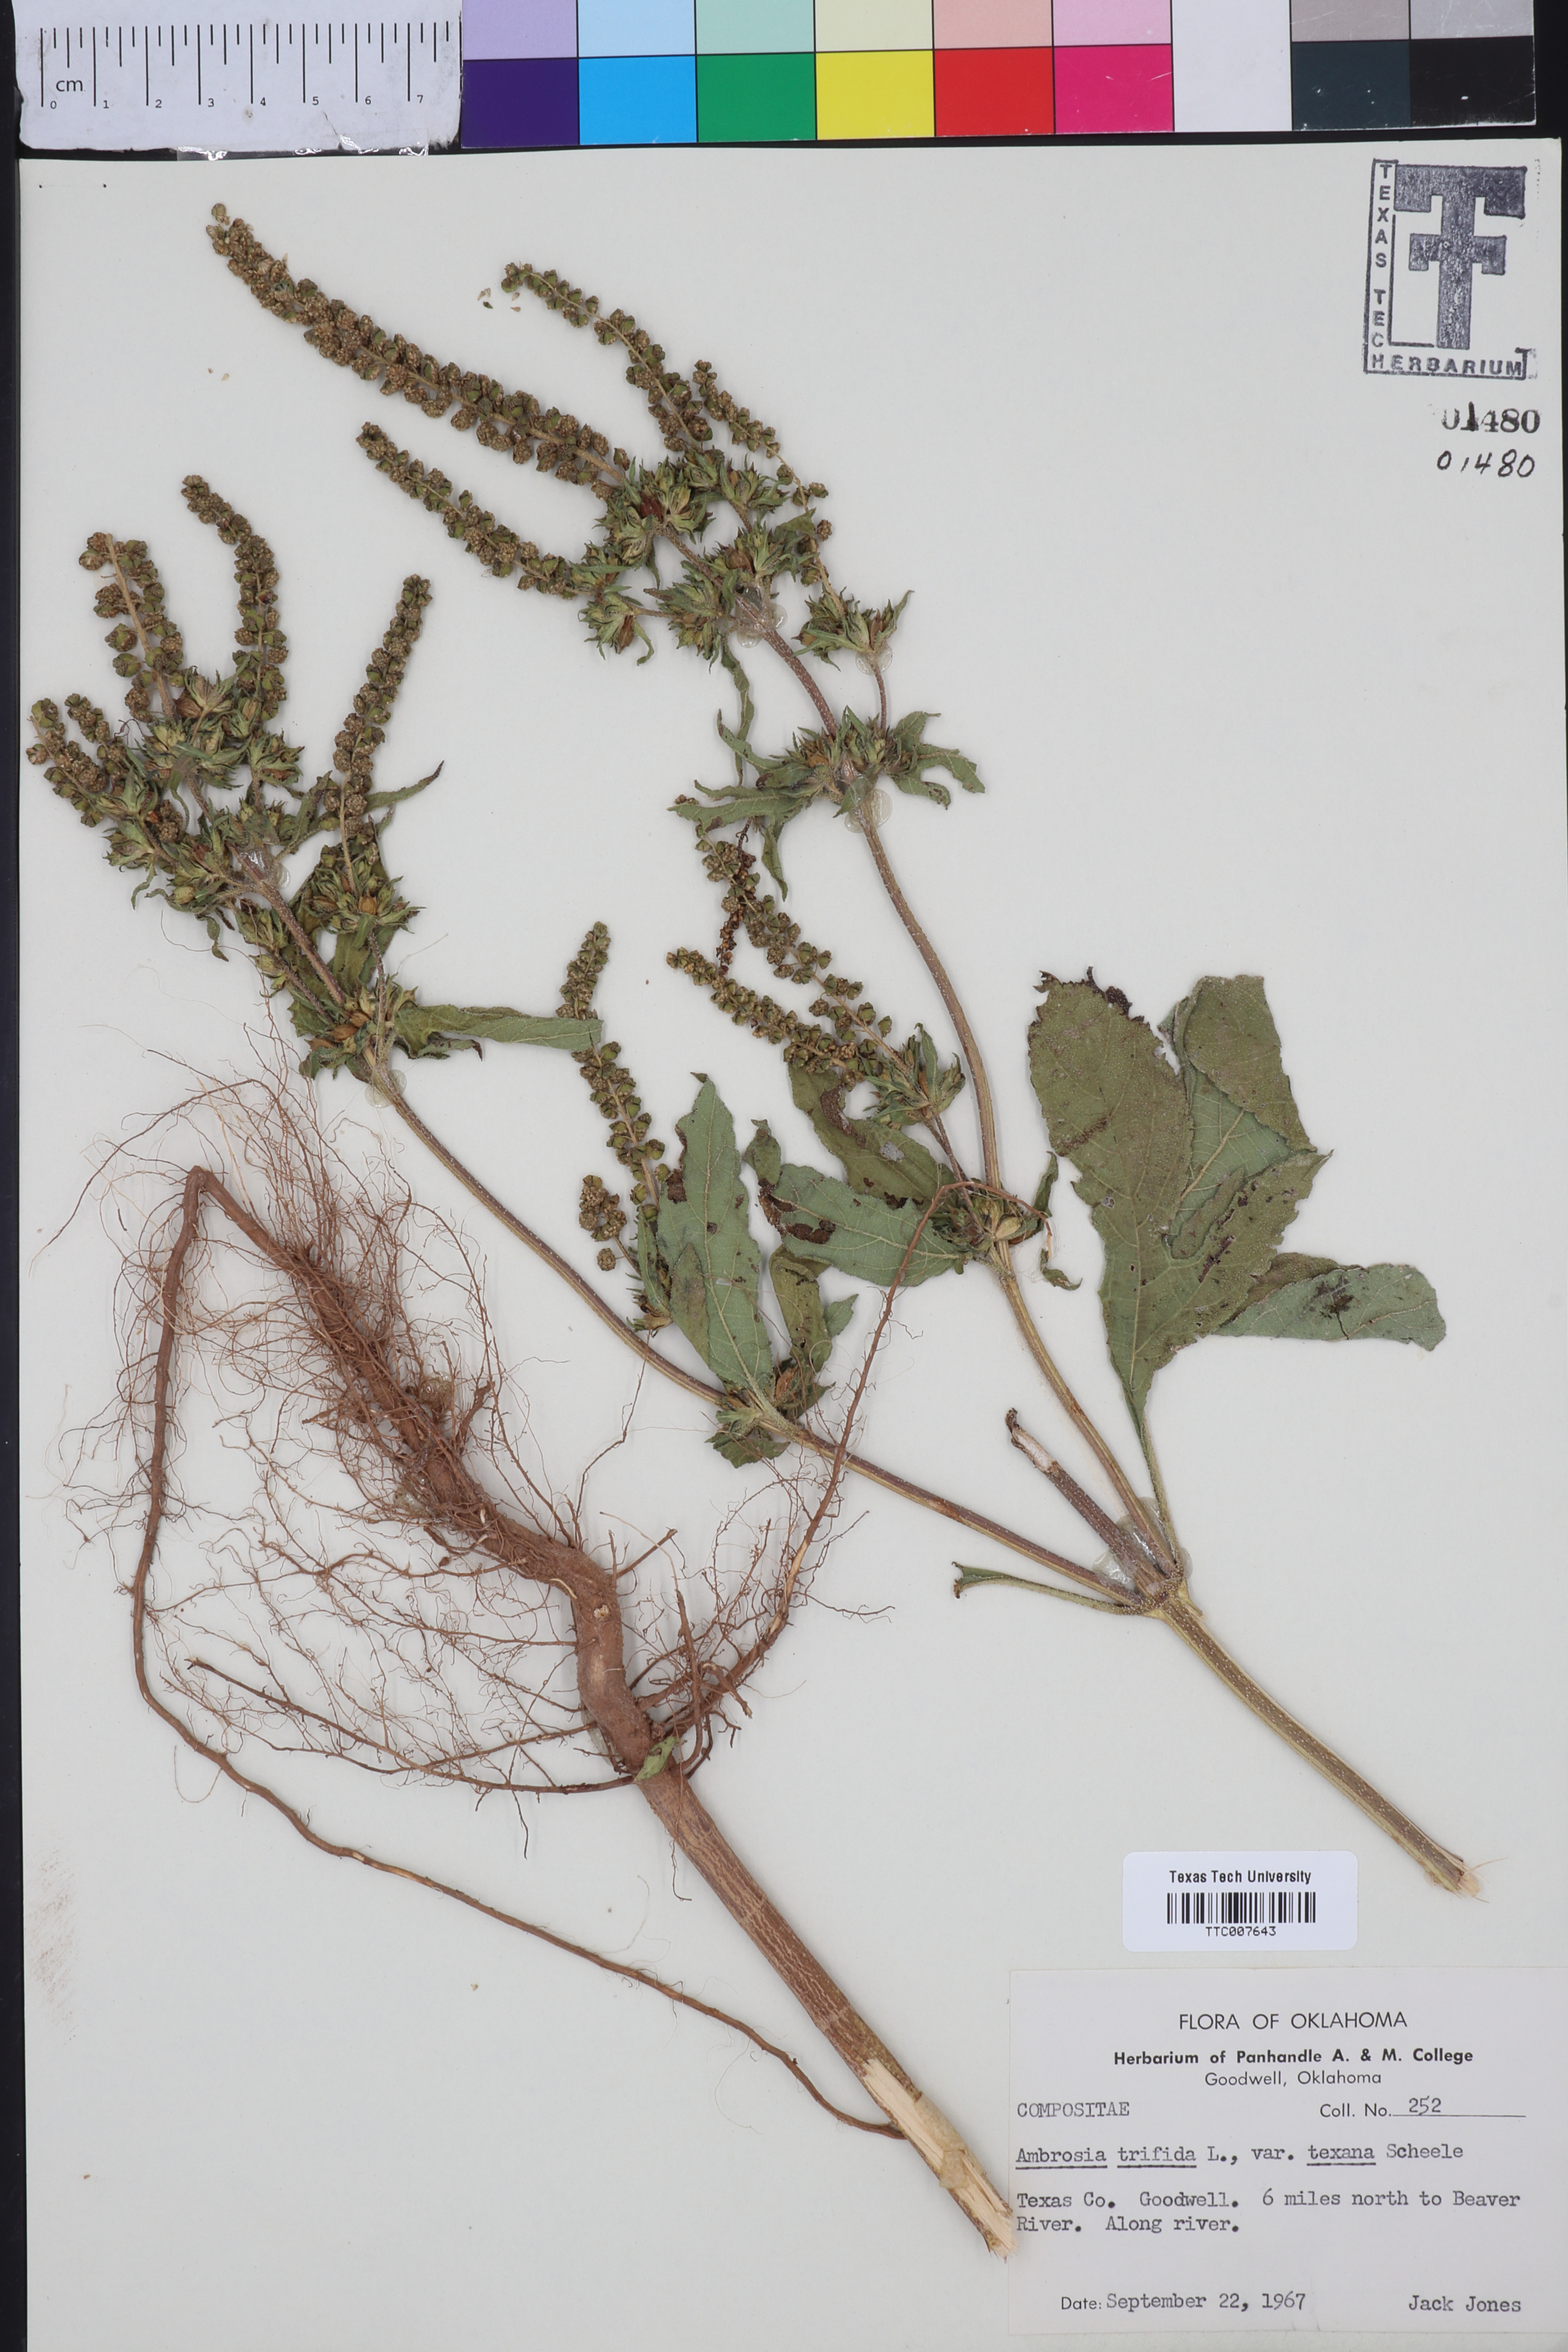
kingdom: Plantae
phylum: Tracheophyta
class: Magnoliopsida
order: Asterales
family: Asteraceae
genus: Ambrosia
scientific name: Ambrosia trifida
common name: Giant ragweed
